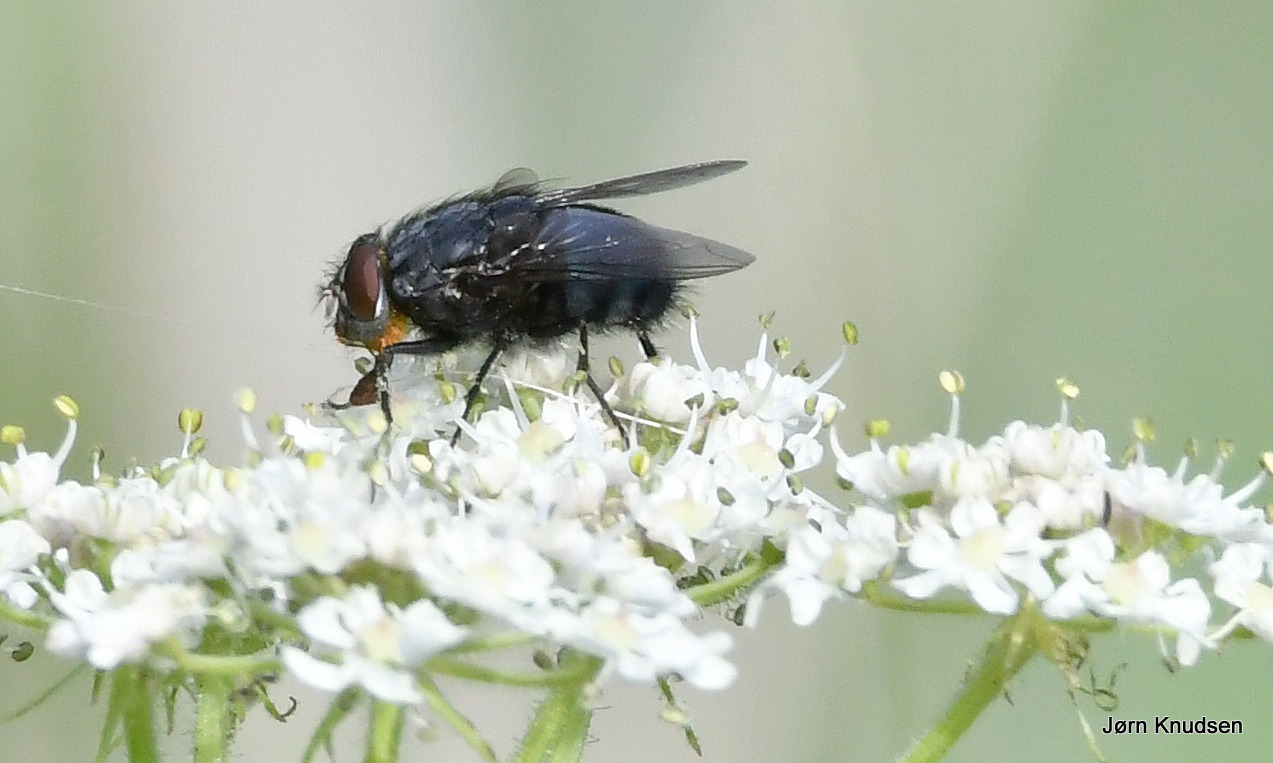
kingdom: Animalia
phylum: Arthropoda
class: Insecta
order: Diptera
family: Calliphoridae
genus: Calliphora
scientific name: Calliphora vomitoria
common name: Almindelig spyflue
